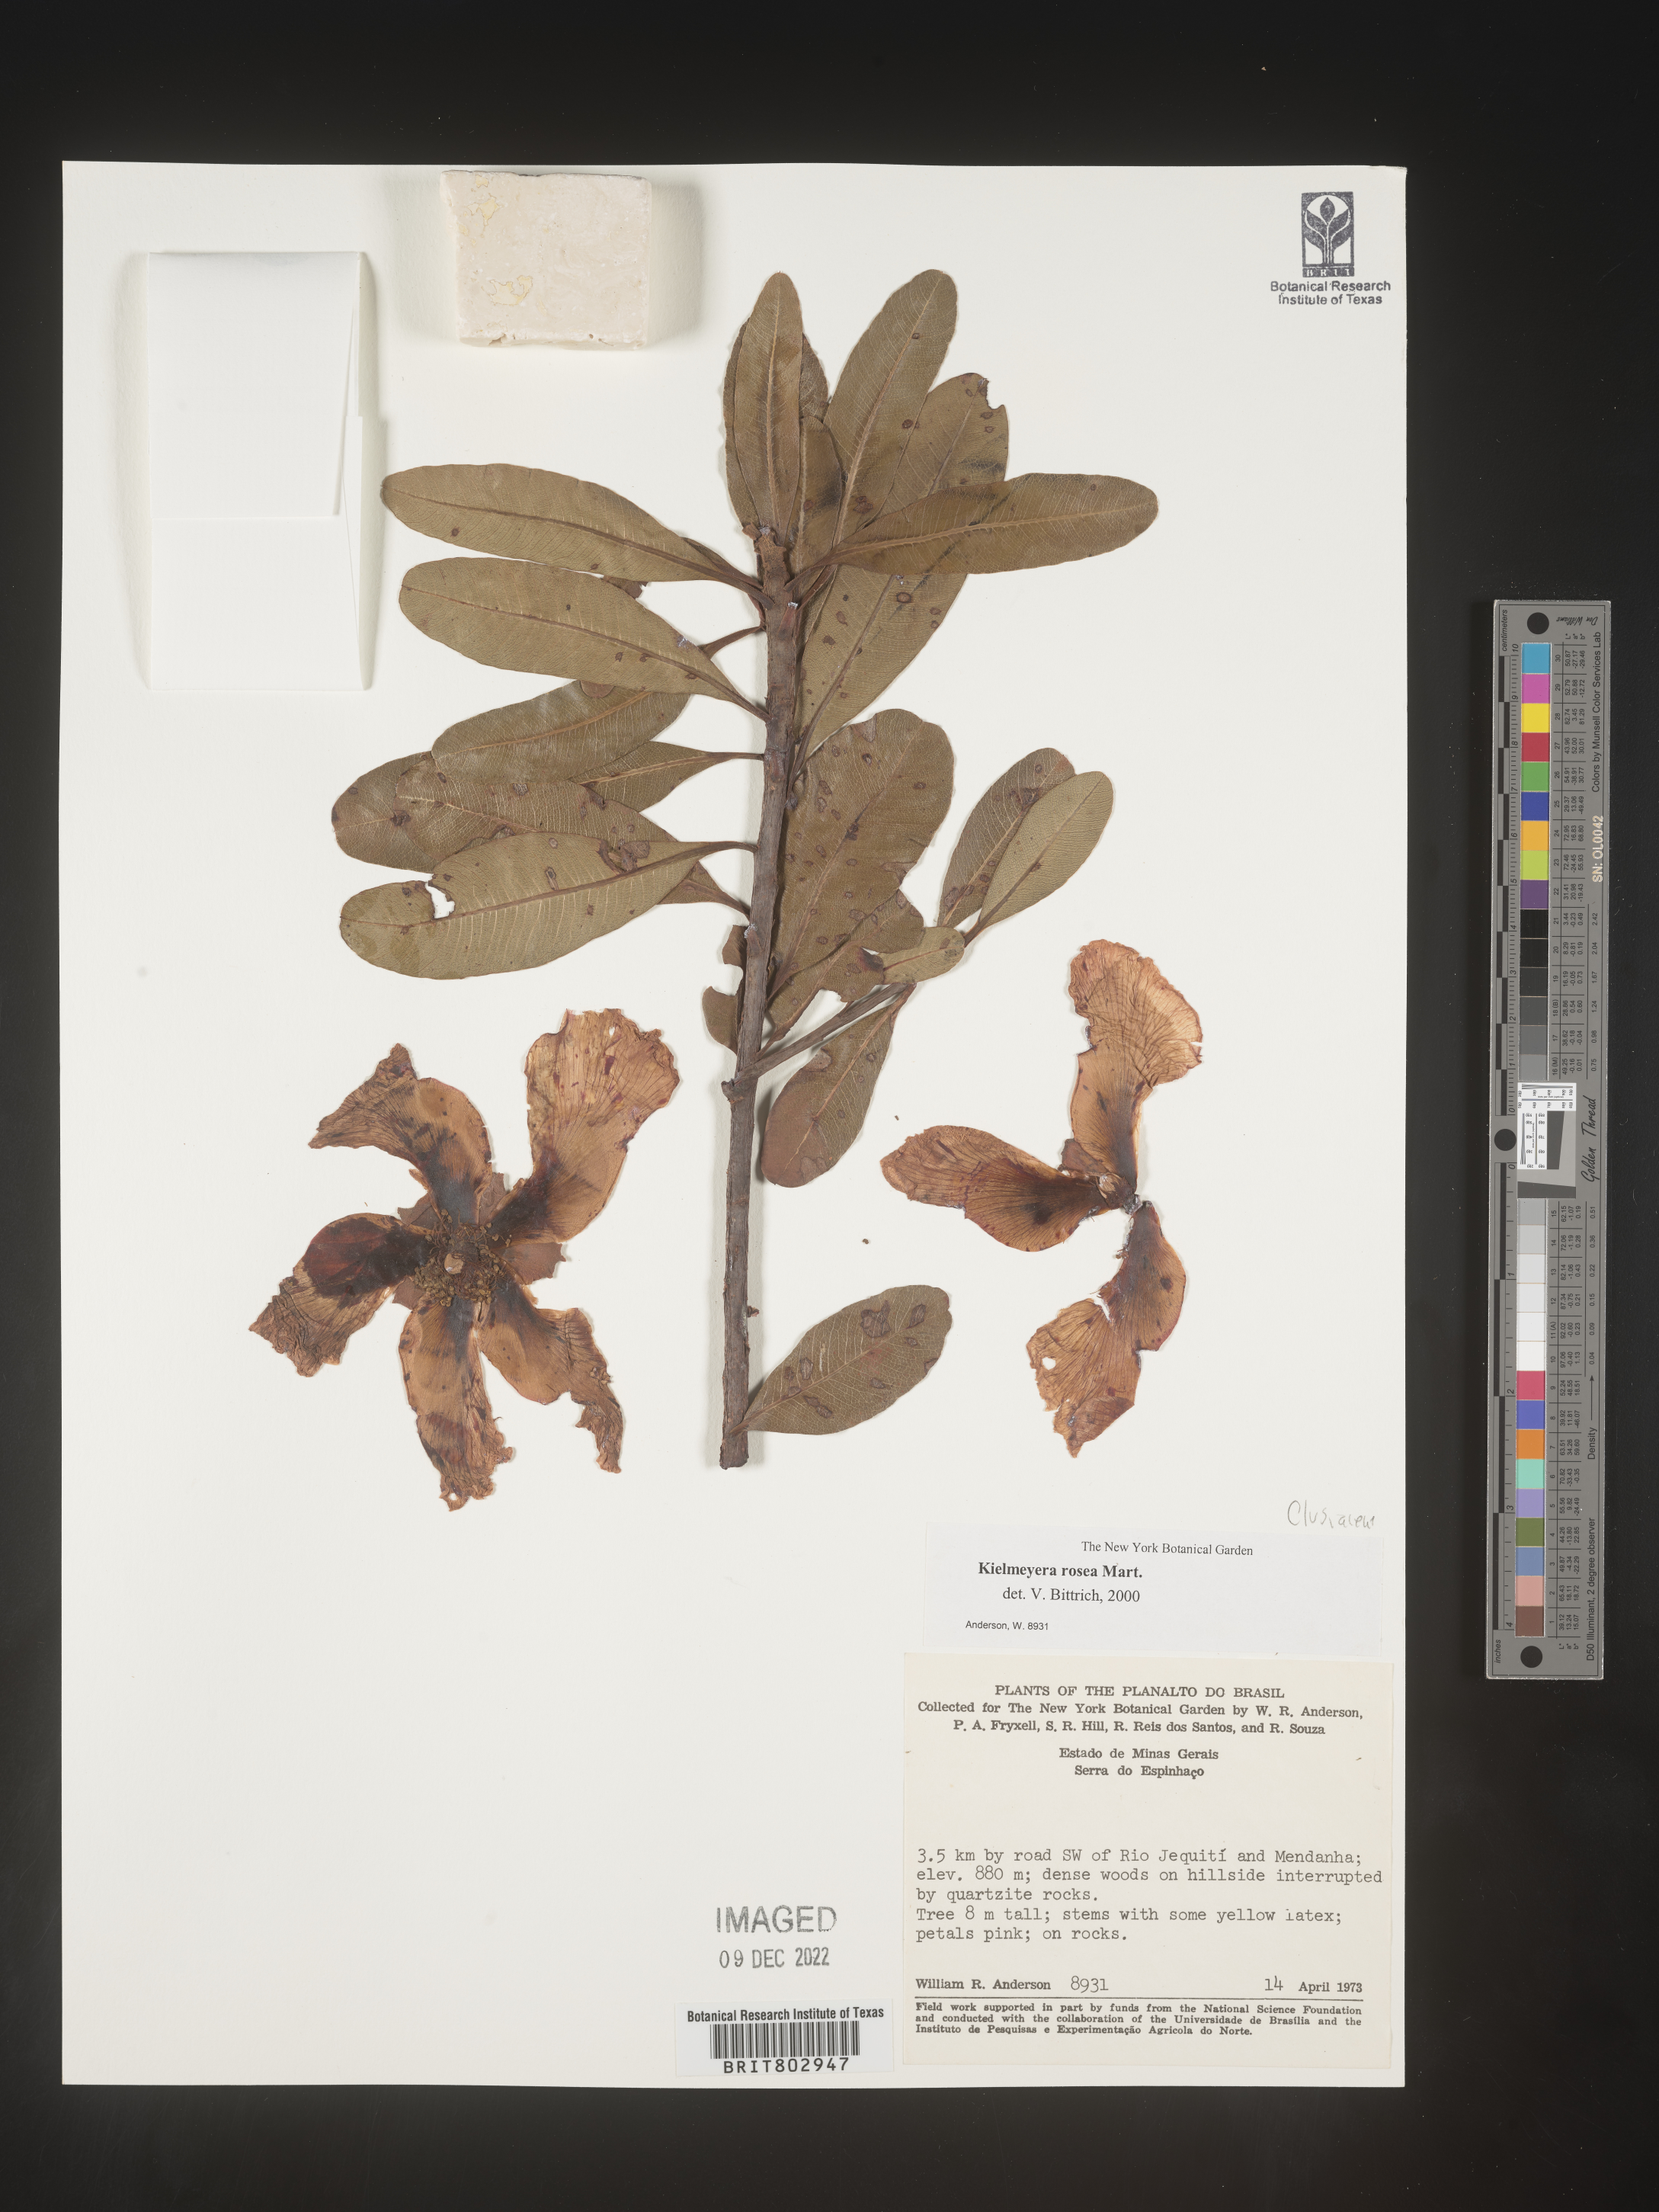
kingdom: Plantae
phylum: Tracheophyta
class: Magnoliopsida
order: Malpighiales
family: Calophyllaceae
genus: Kielmeyera
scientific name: Kielmeyera
